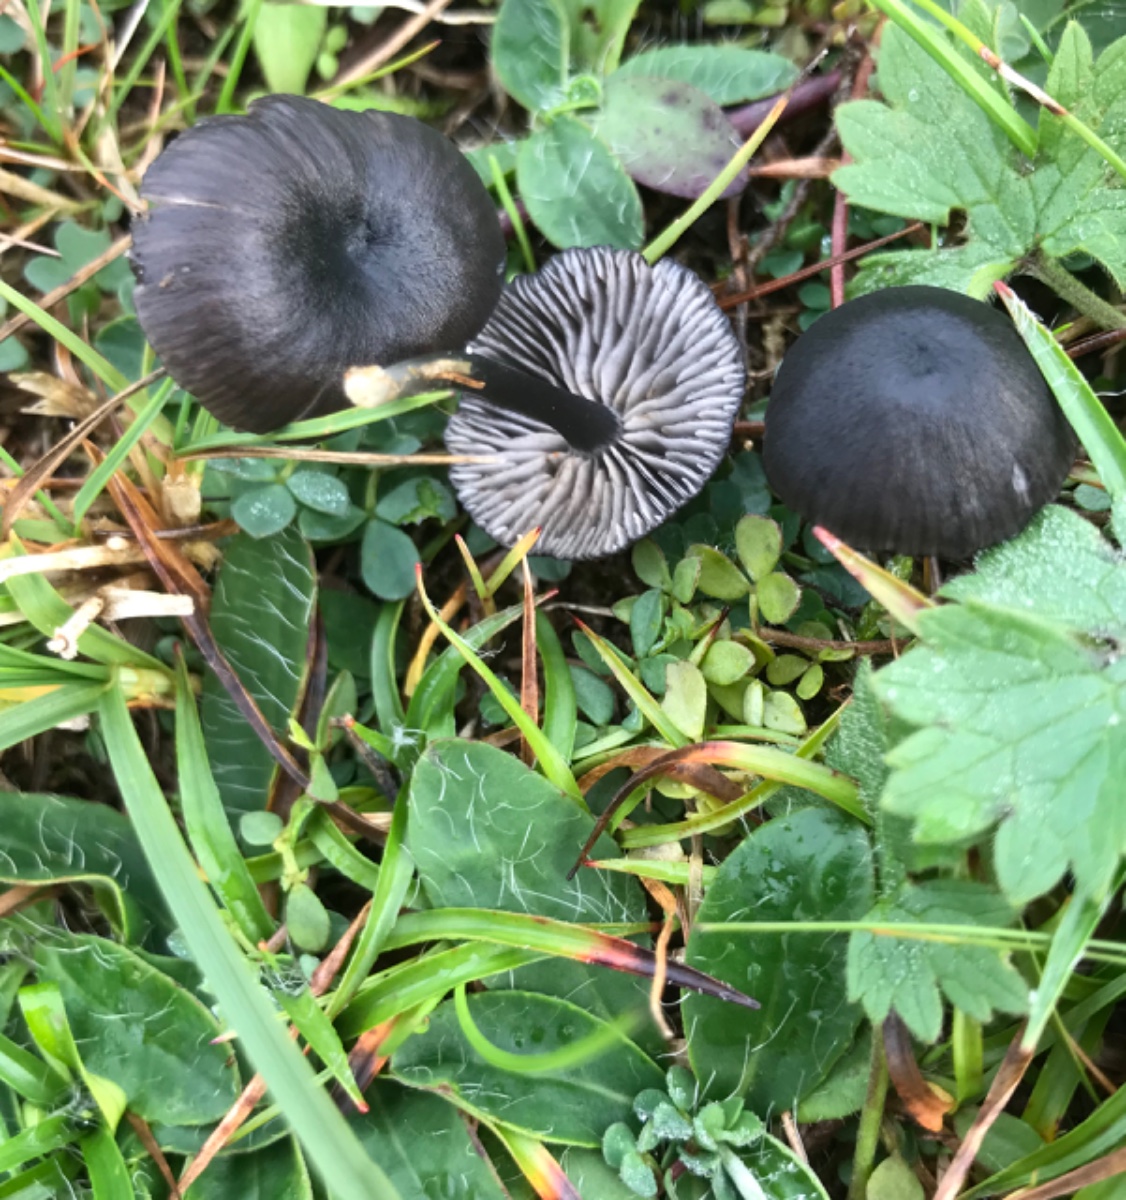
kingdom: Fungi
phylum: Basidiomycota
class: Agaricomycetes
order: Agaricales
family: Entolomataceae
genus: Entoloma
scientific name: Entoloma
